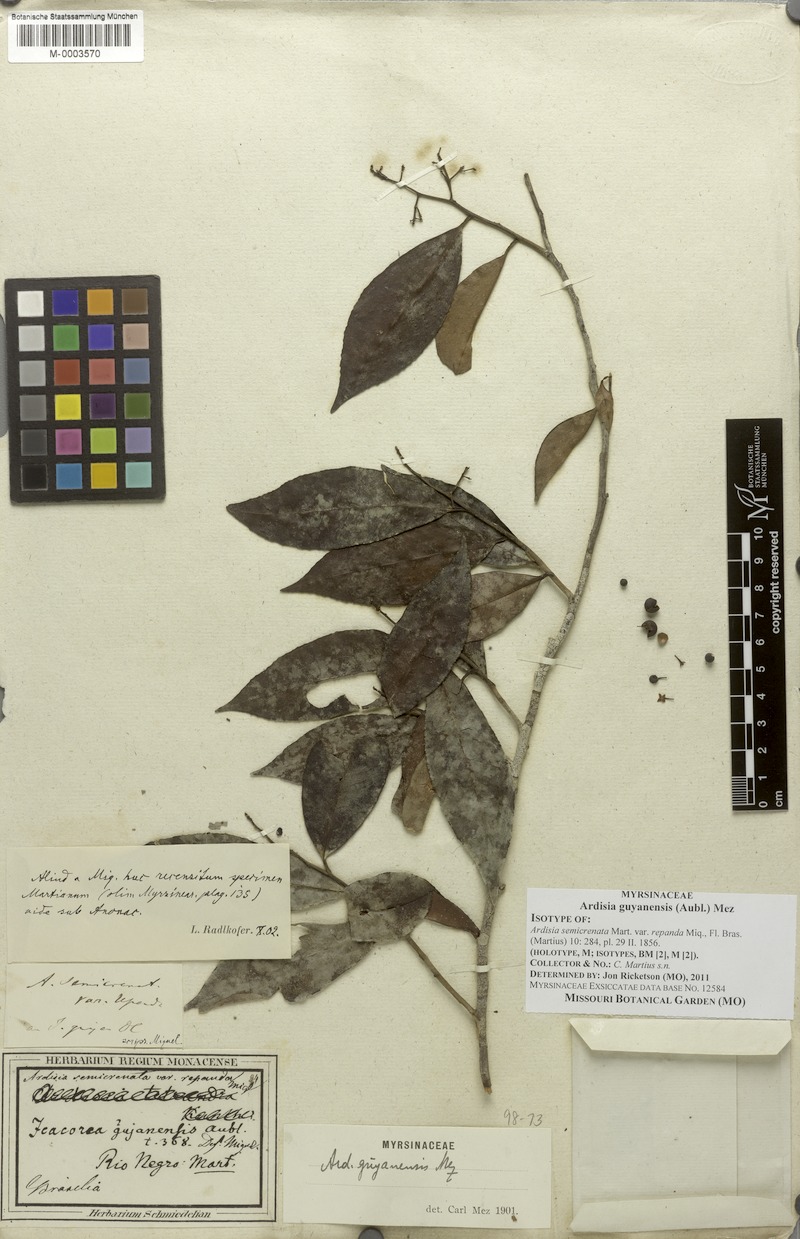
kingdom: Plantae
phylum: Tracheophyta
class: Magnoliopsida
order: Ericales
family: Primulaceae
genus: Ardisia
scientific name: Ardisia guianensis
